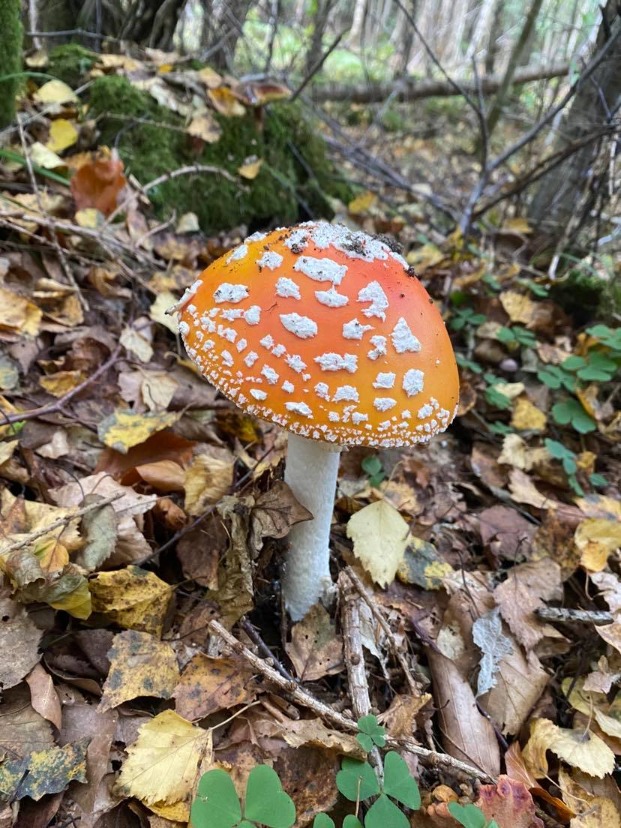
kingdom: Fungi
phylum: Basidiomycota
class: Agaricomycetes
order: Agaricales
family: Amanitaceae
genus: Amanita
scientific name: Amanita muscaria
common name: Rød fluesvamp
